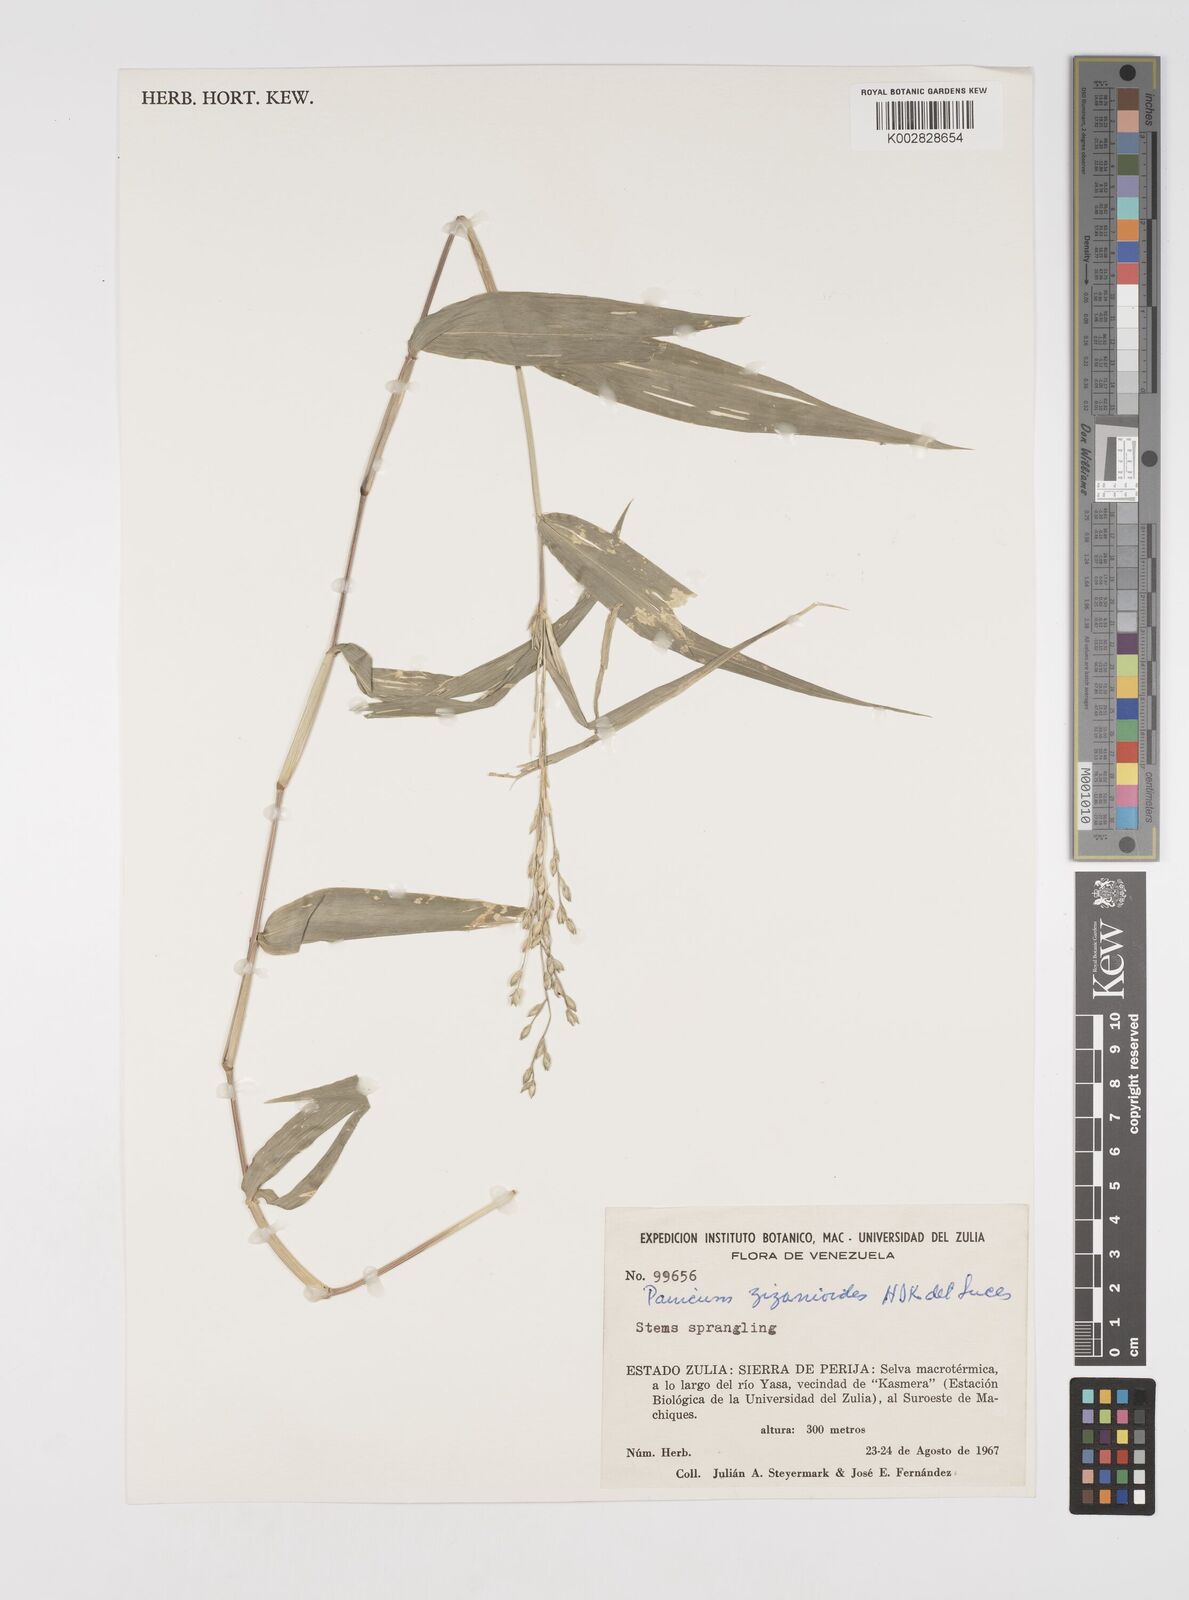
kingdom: Plantae
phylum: Tracheophyta
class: Liliopsida
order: Poales
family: Poaceae
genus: Acroceras
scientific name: Acroceras zizanioides
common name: Oat grass
